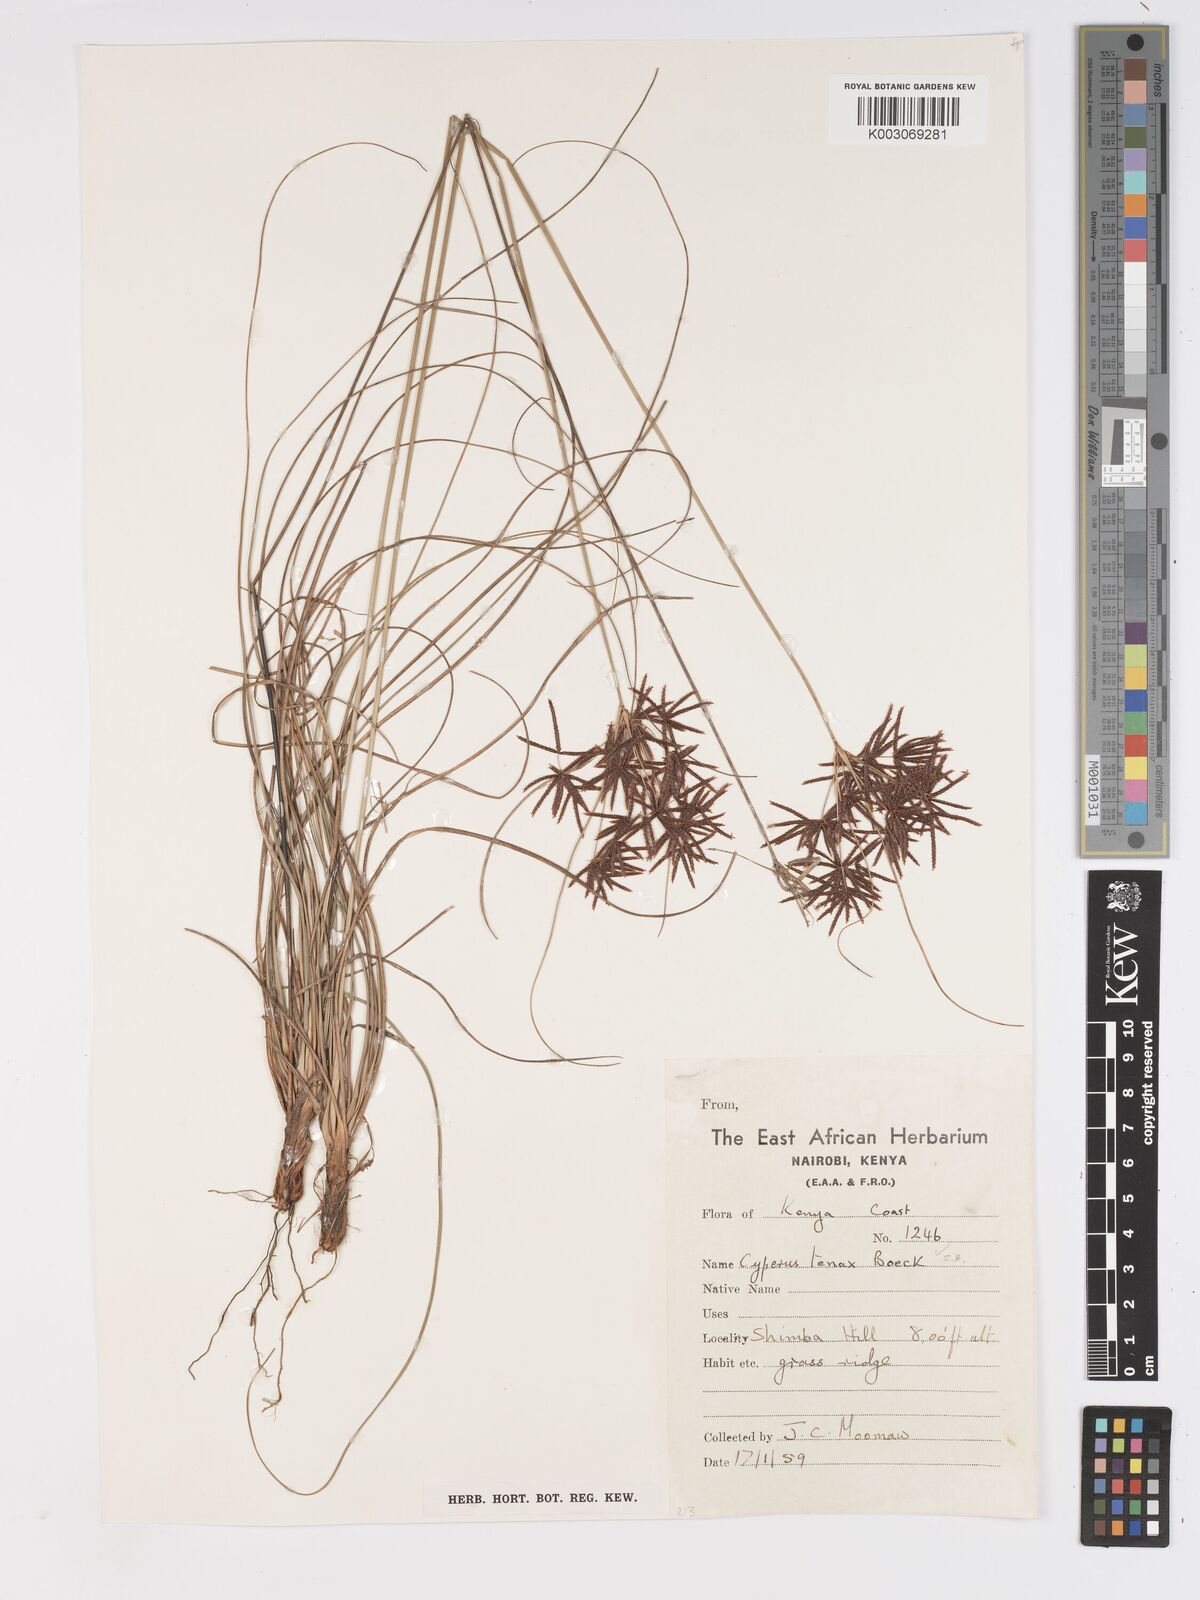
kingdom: Plantae
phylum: Tracheophyta
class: Liliopsida
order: Poales
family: Cyperaceae
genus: Cyperus
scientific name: Cyperus tenax
